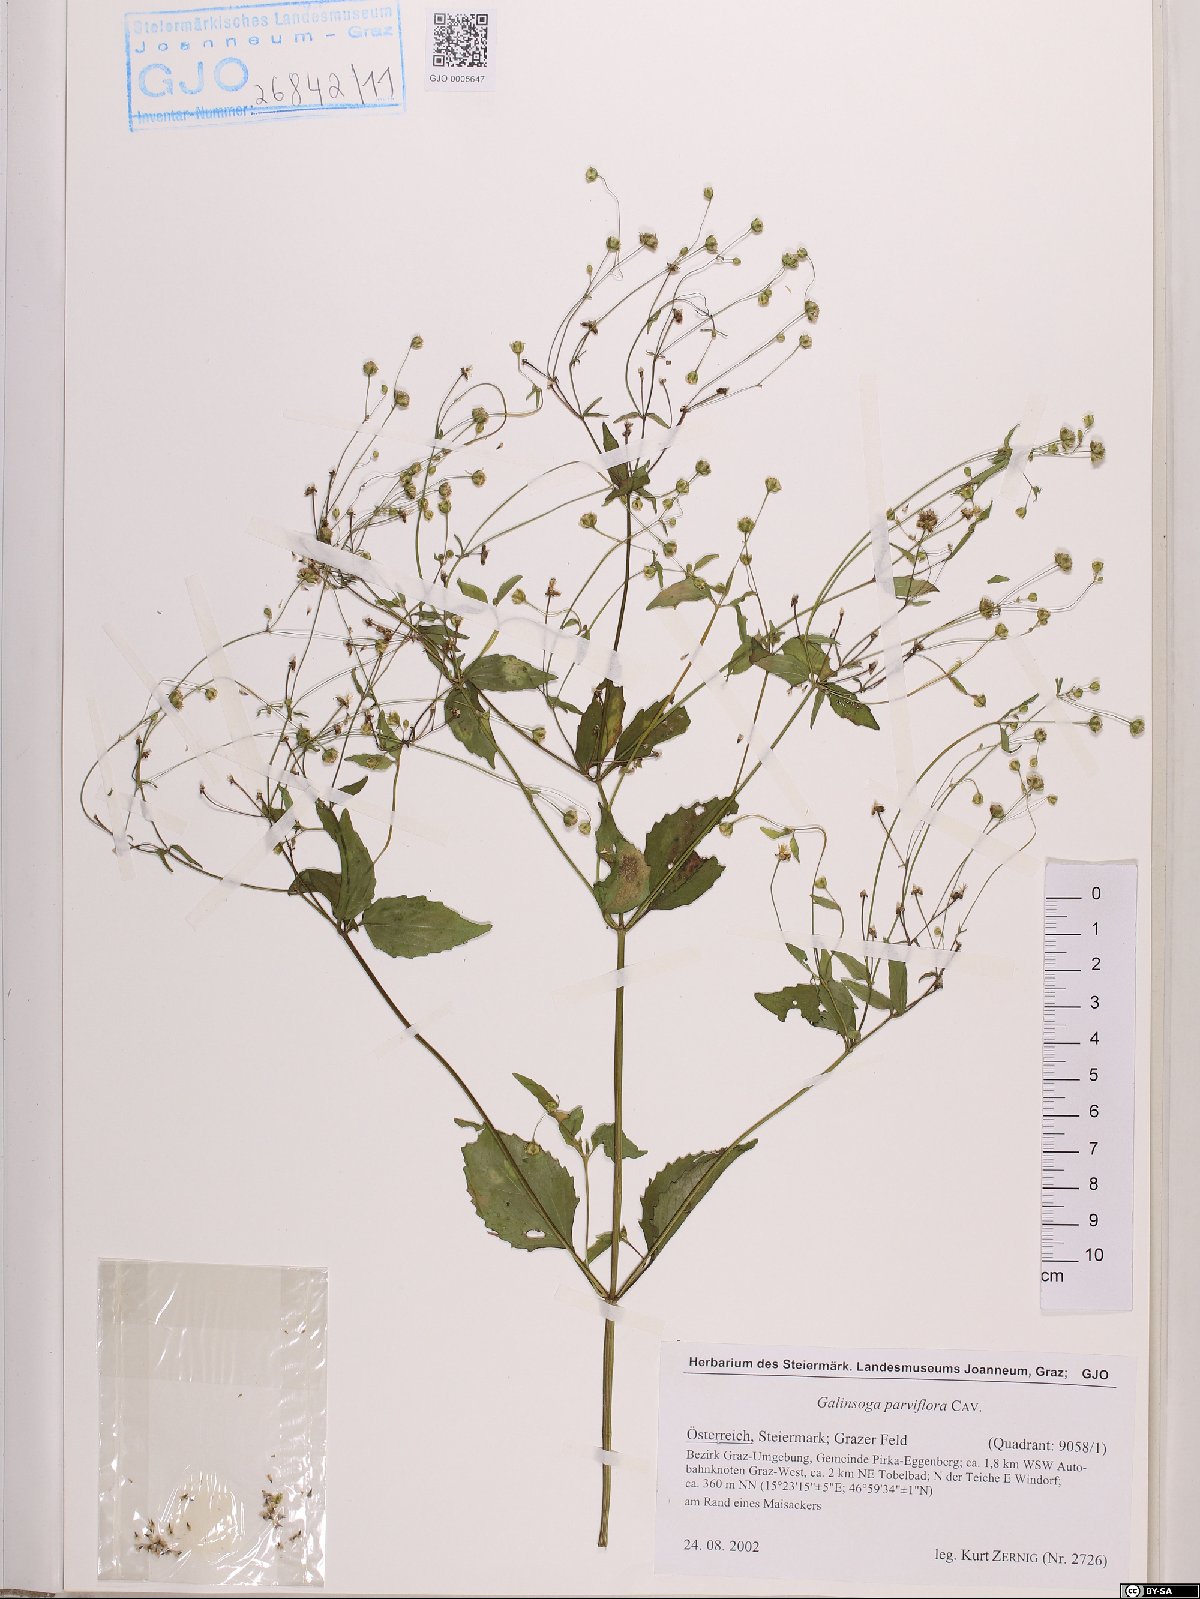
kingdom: Plantae
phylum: Tracheophyta
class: Magnoliopsida
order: Asterales
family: Asteraceae
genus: Galinsoga
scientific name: Galinsoga parviflora
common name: Gallant soldier
